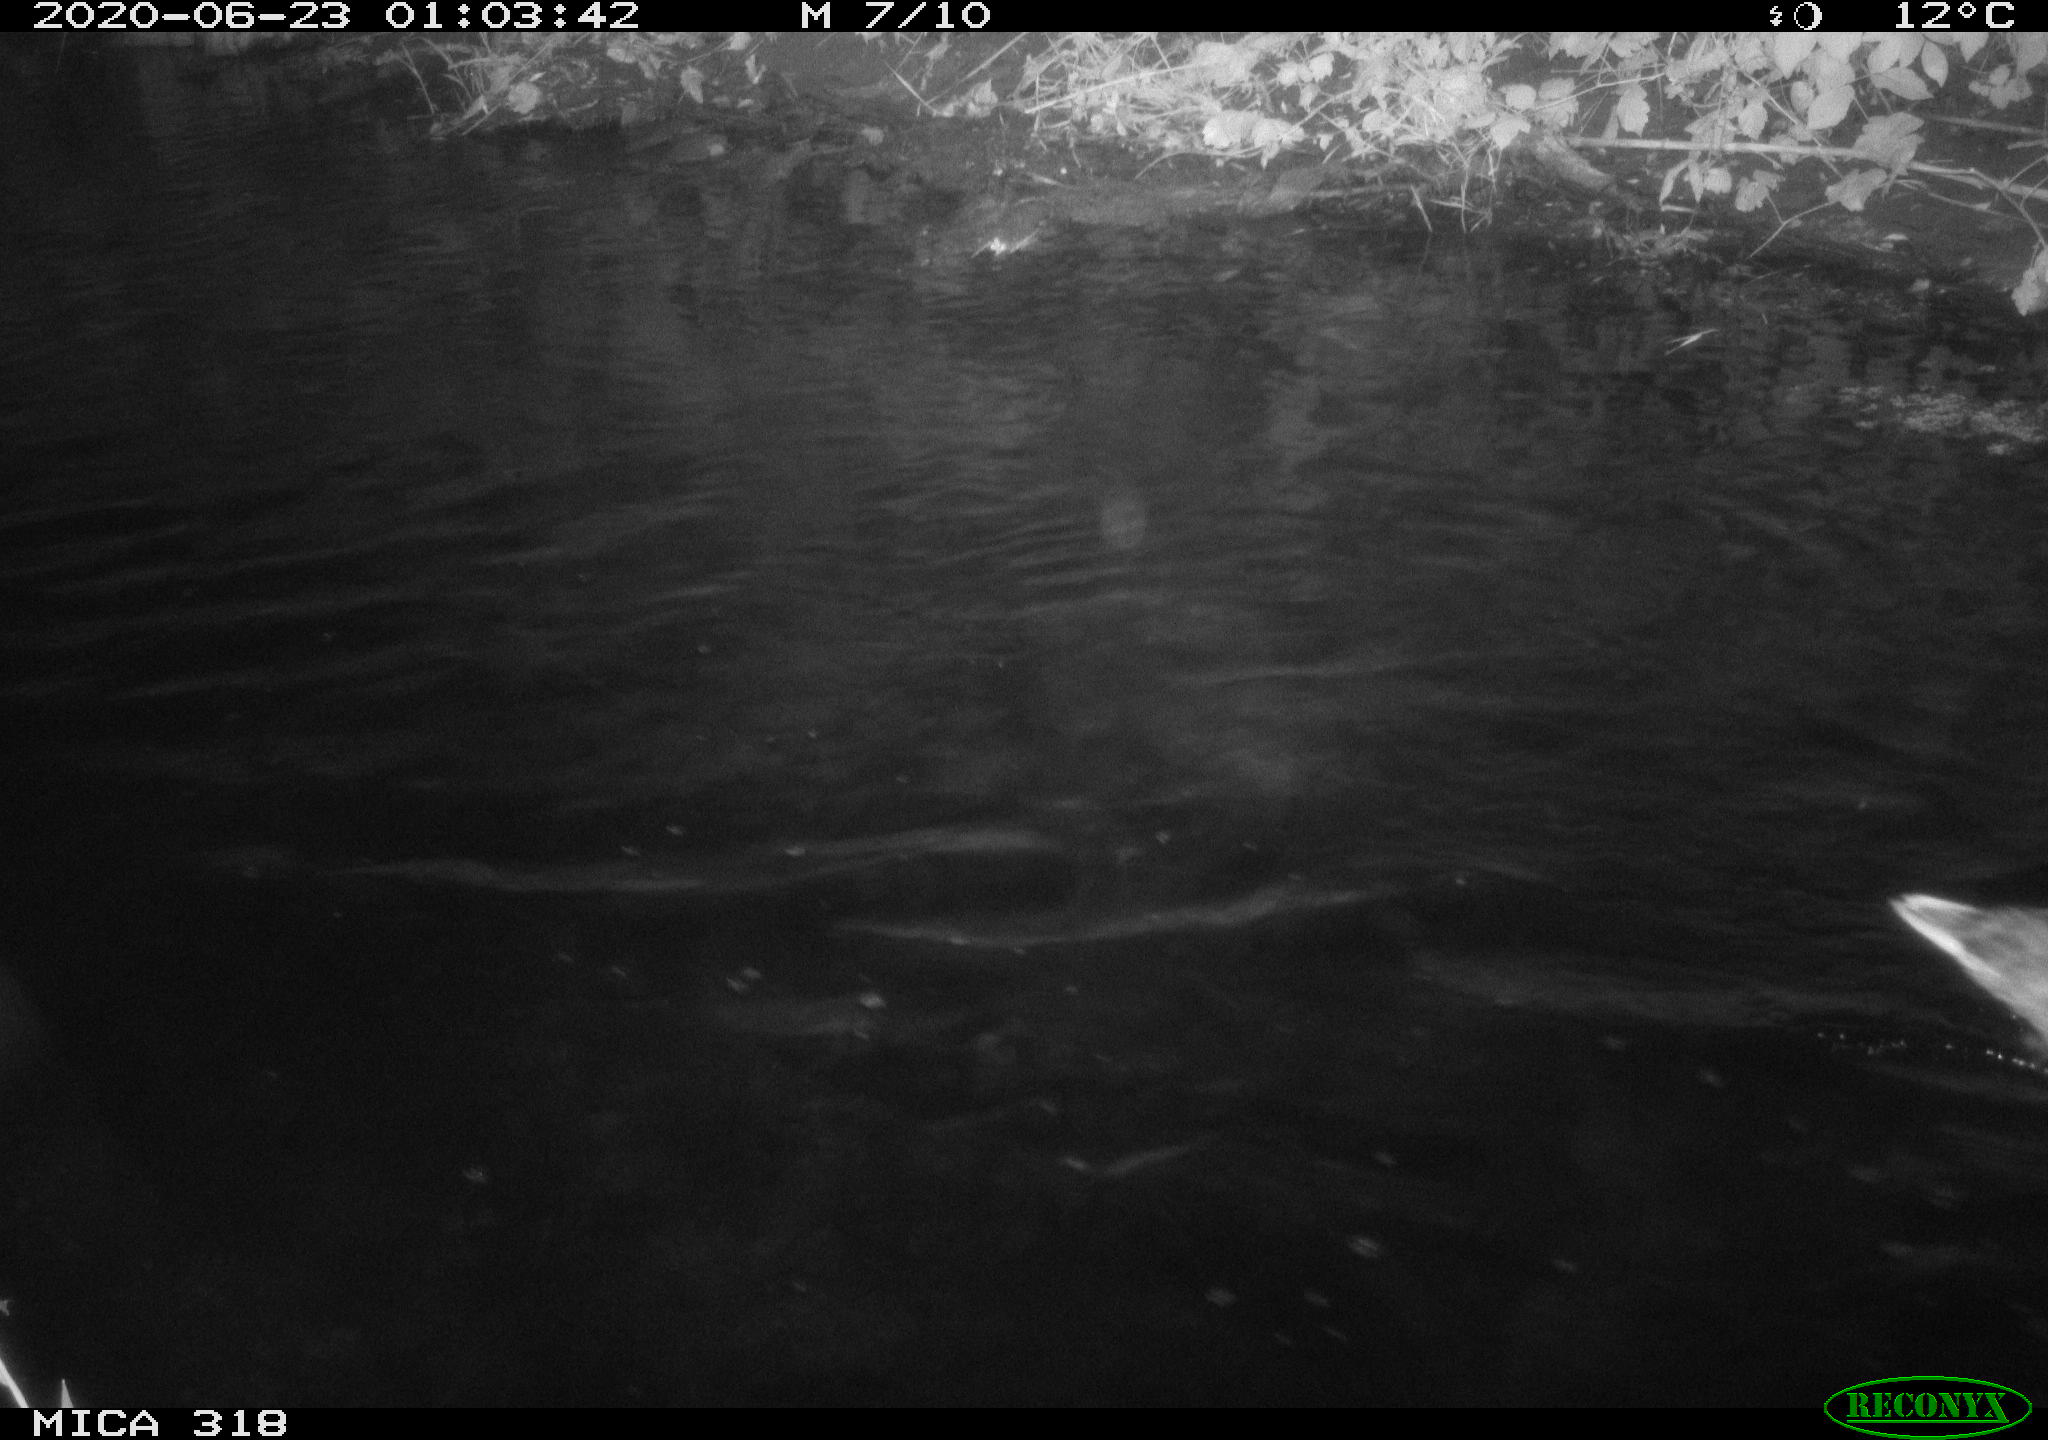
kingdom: Animalia
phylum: Chordata
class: Aves
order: Anseriformes
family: Anatidae
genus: Anas
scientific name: Anas platyrhynchos
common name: Mallard
